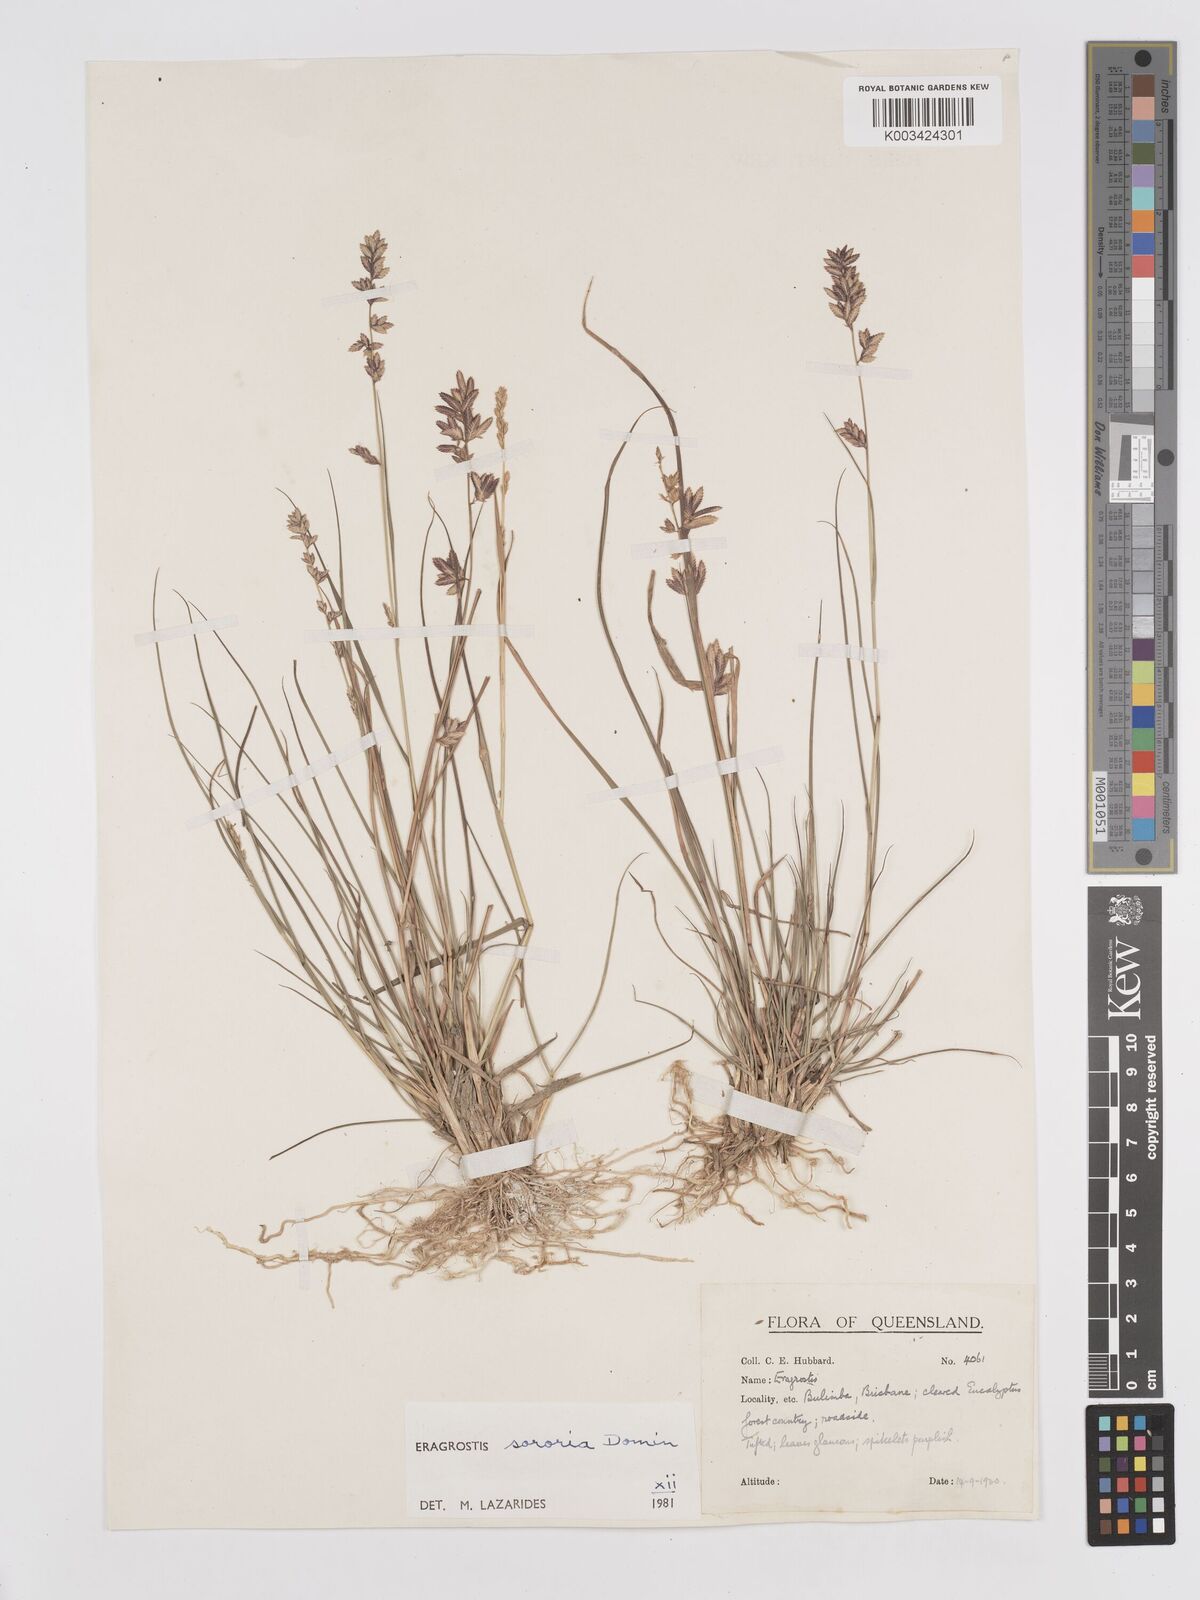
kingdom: Plantae
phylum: Tracheophyta
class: Liliopsida
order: Poales
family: Poaceae
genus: Eragrostis
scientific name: Eragrostis sororia
